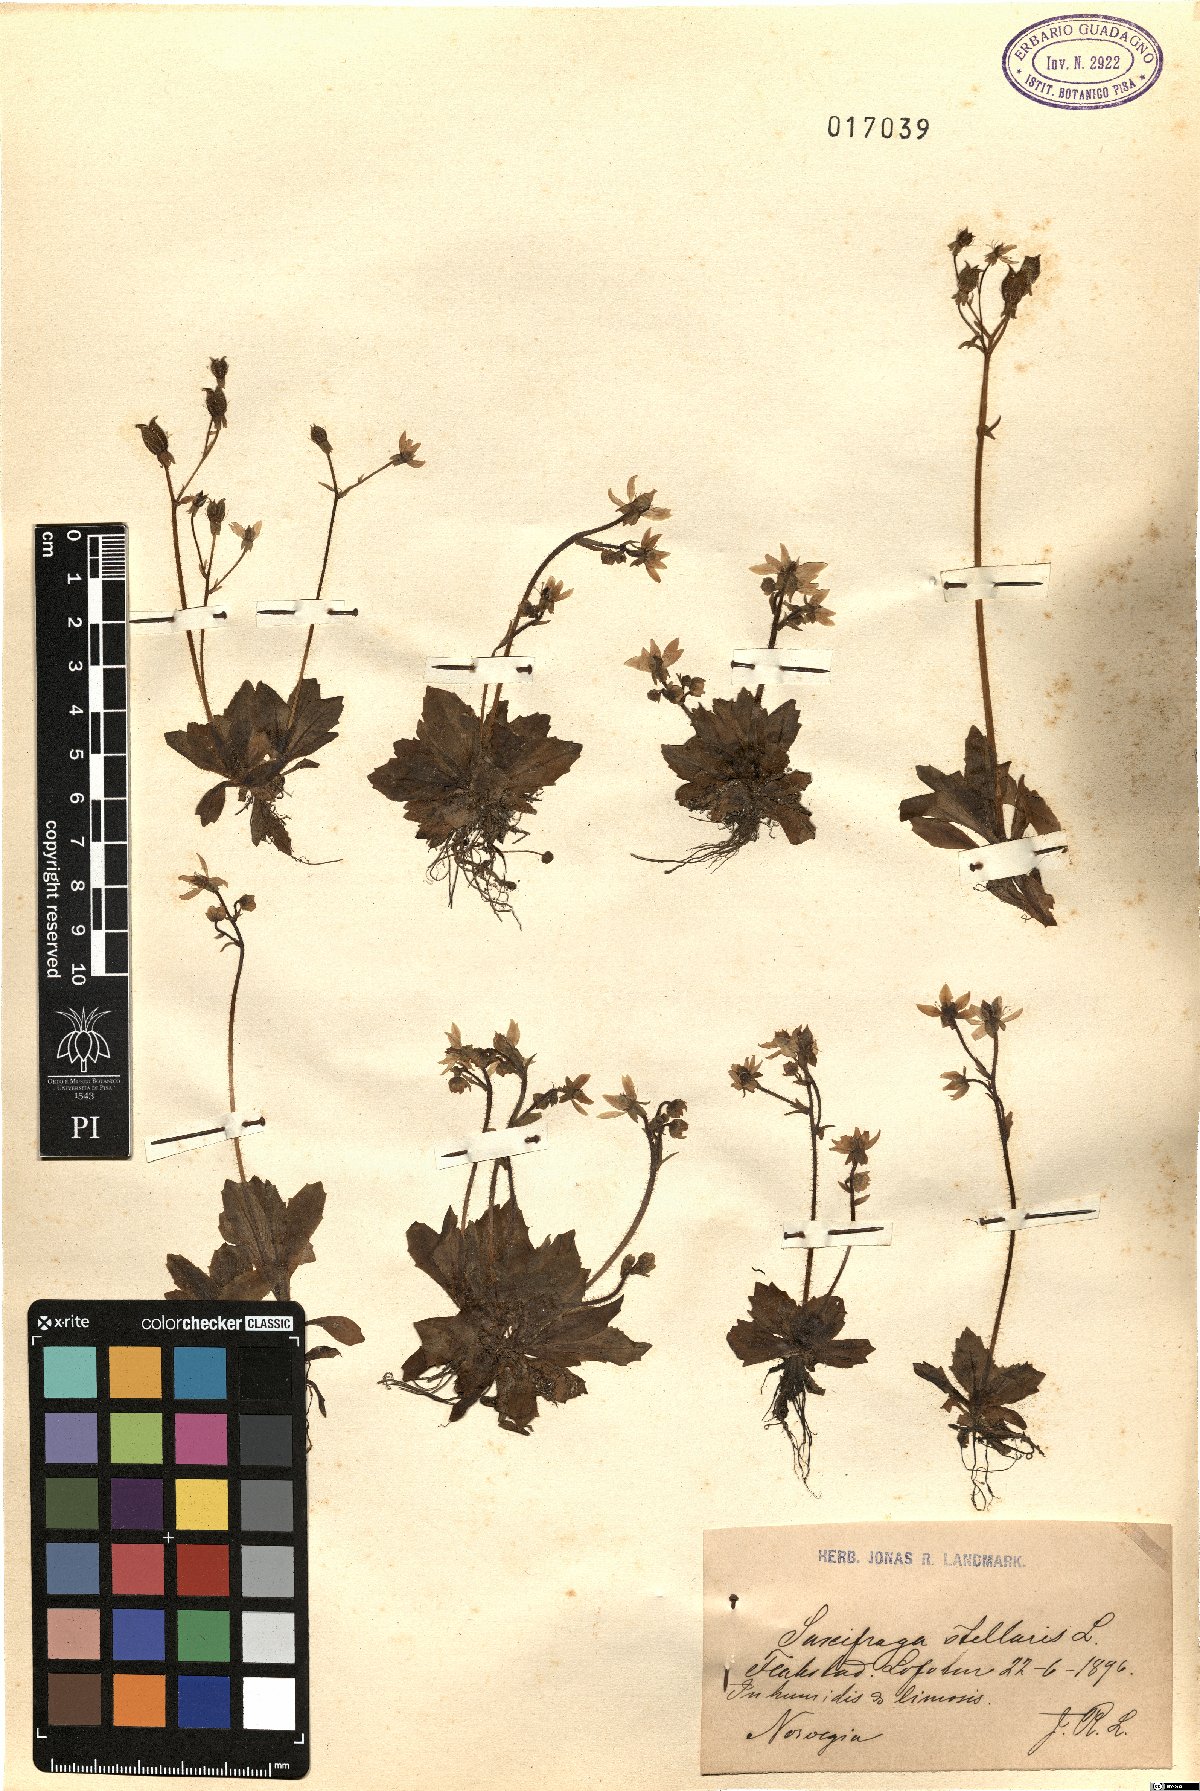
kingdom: Plantae
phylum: Tracheophyta
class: Magnoliopsida
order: Saxifragales
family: Saxifragaceae
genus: Micranthes
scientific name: Micranthes stellaris
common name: Starry saxifrage
